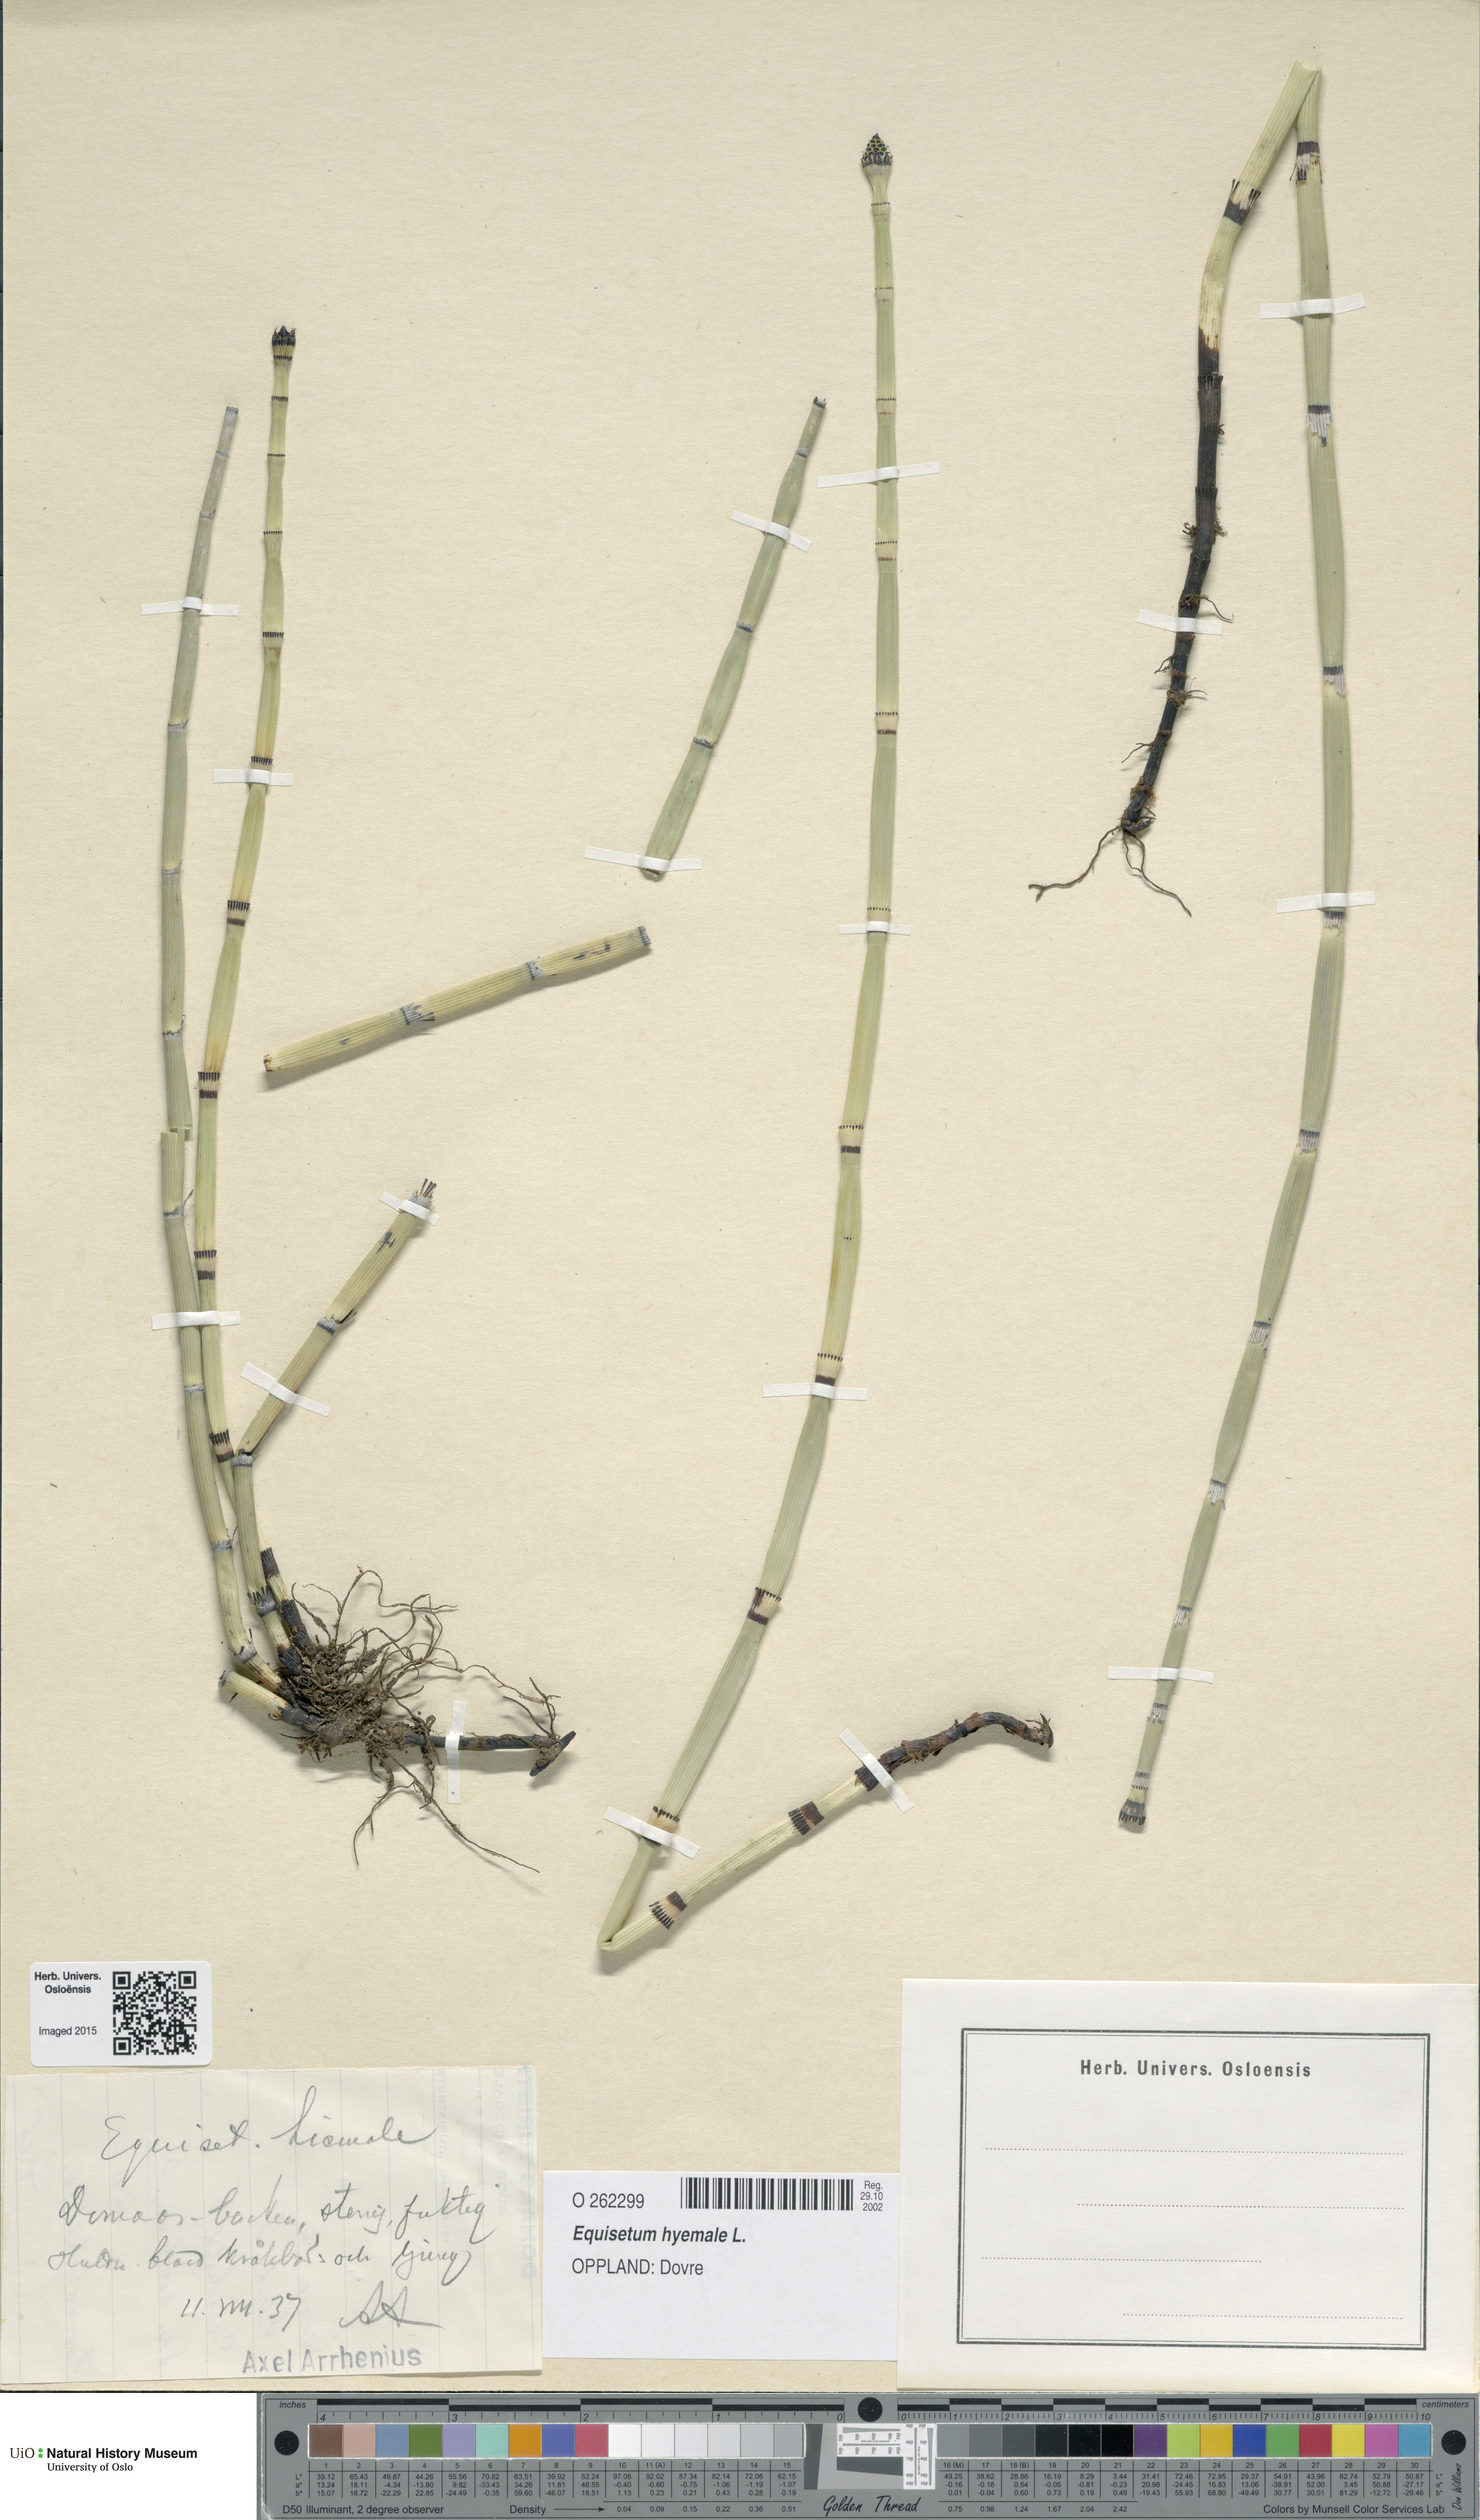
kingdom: Plantae
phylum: Tracheophyta
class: Polypodiopsida
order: Equisetales
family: Equisetaceae
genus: Equisetum
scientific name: Equisetum hyemale
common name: Rough horsetail
